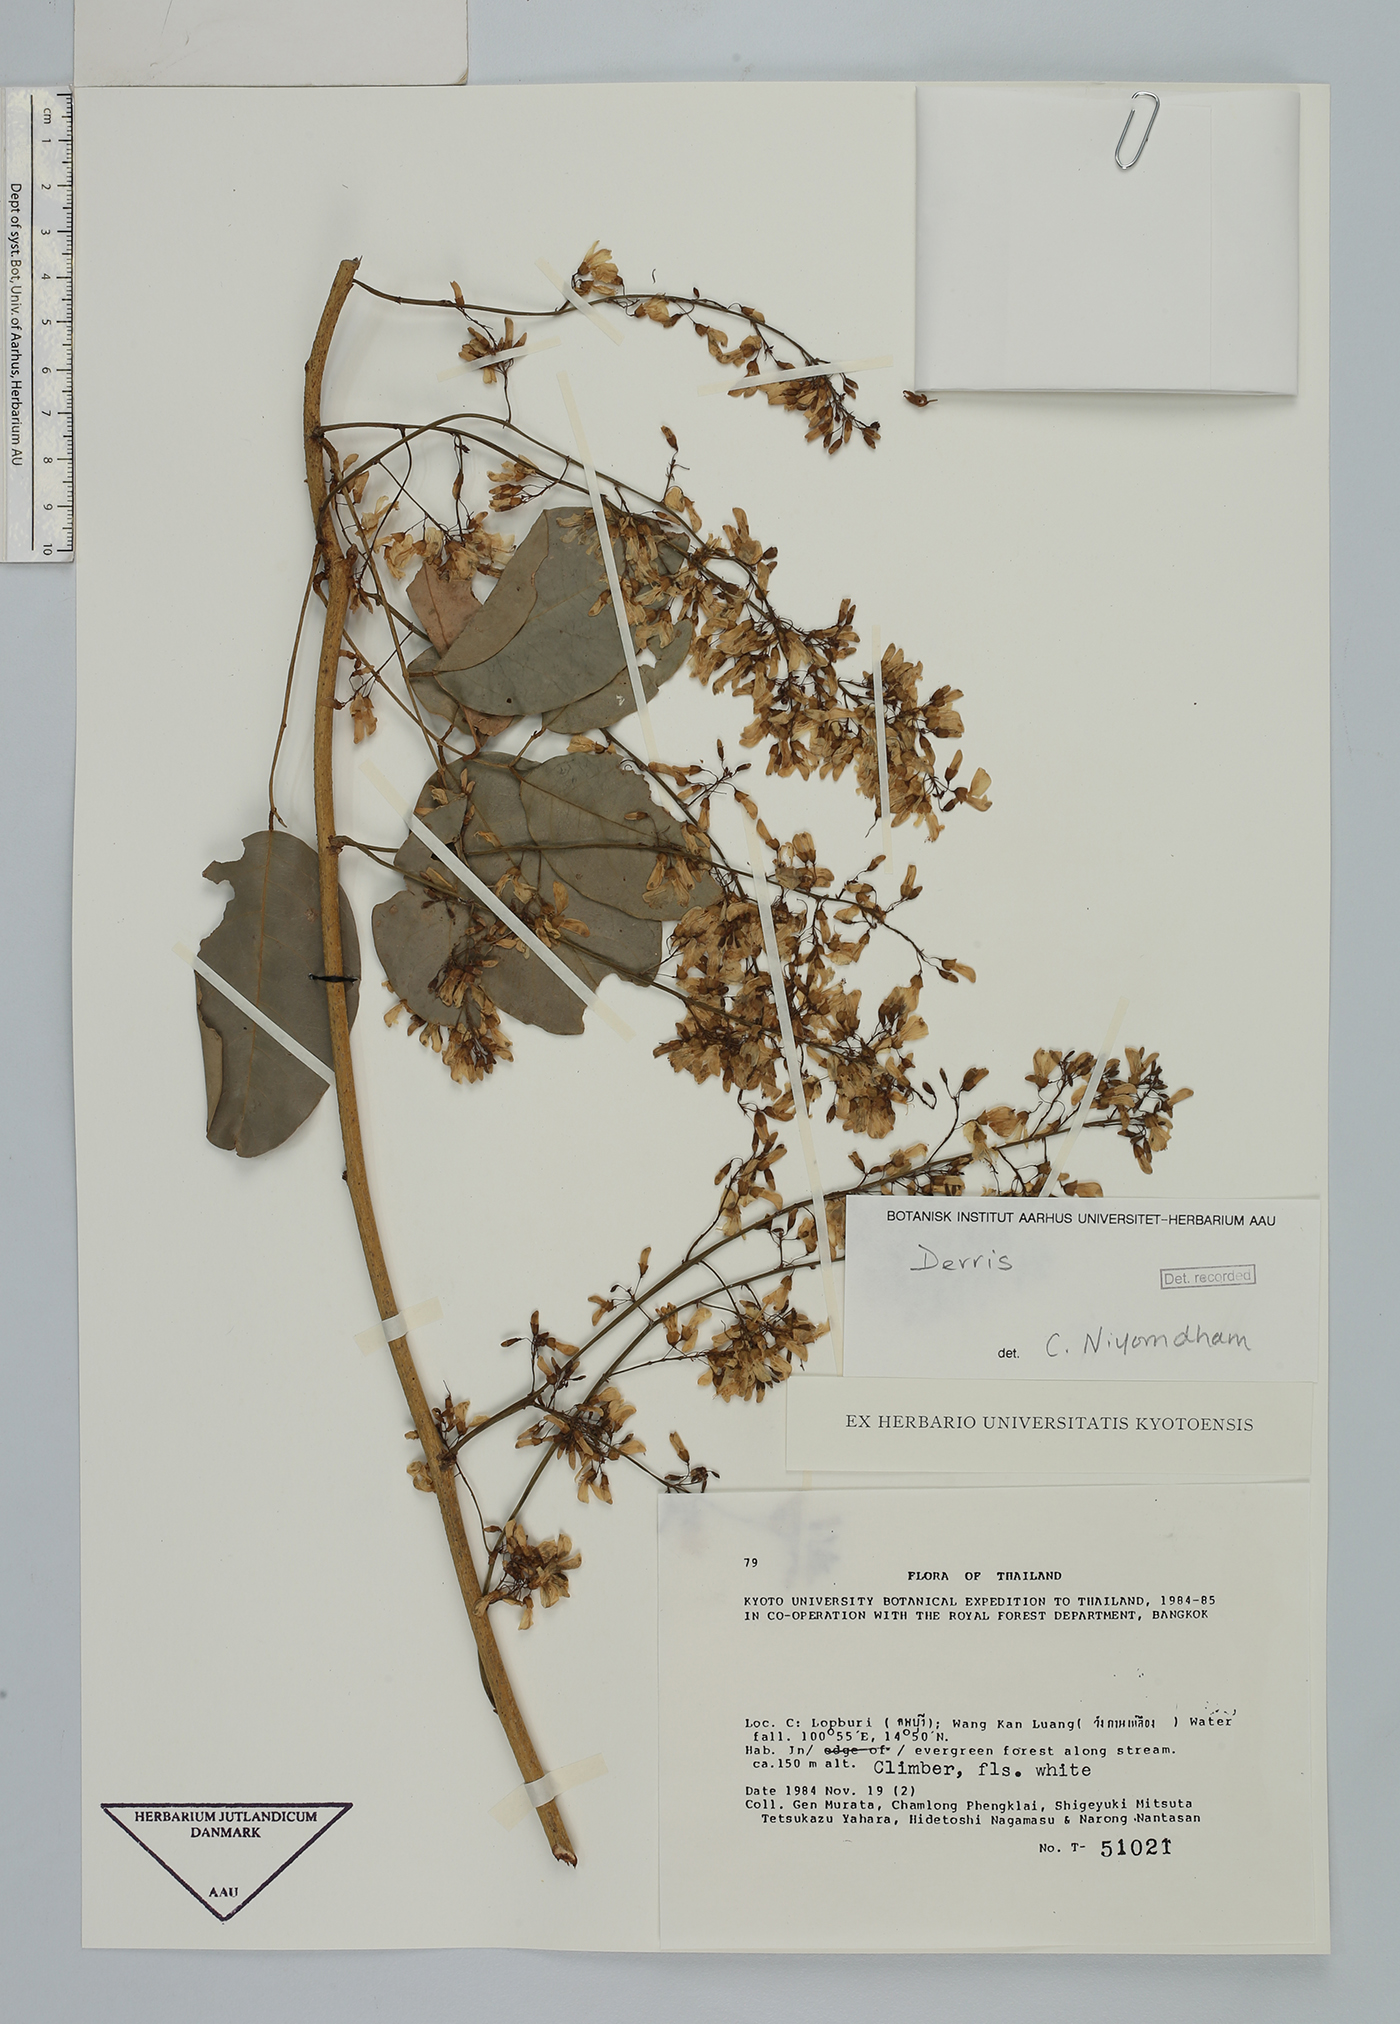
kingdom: Plantae
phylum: Tracheophyta
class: Magnoliopsida
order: Fabales
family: Fabaceae
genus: Derris
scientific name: Derris
